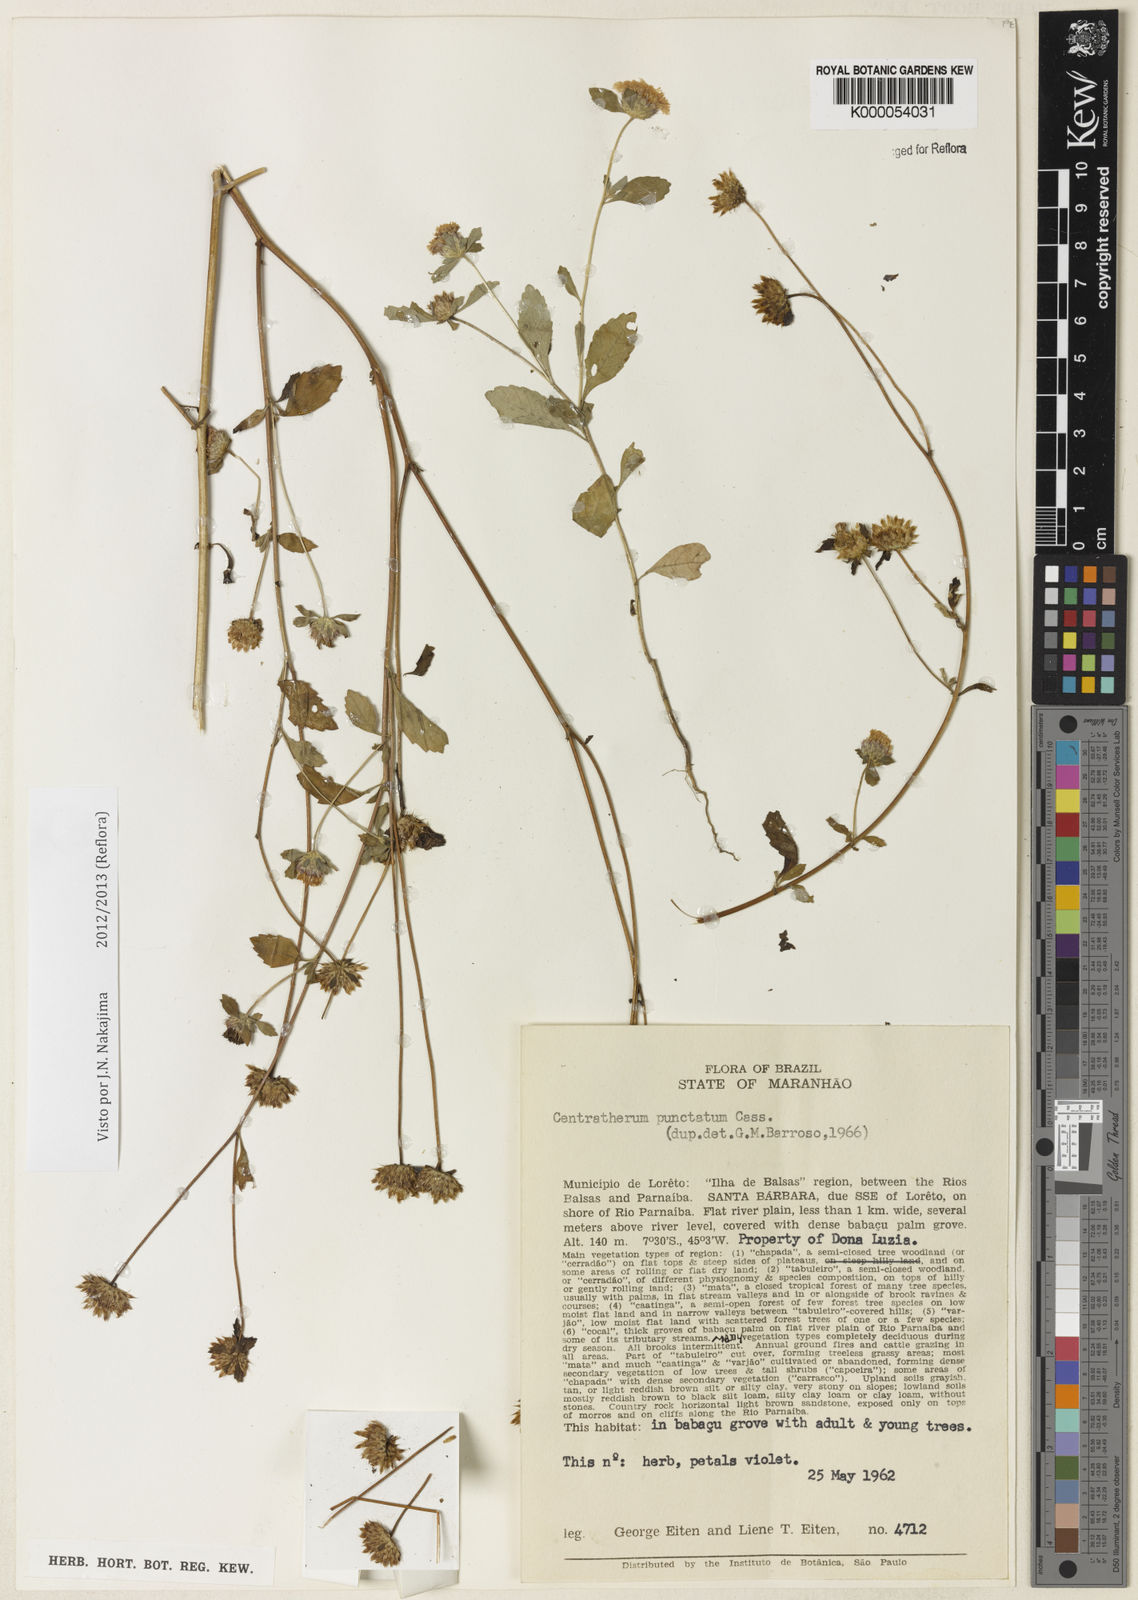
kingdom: Plantae
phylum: Tracheophyta
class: Magnoliopsida
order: Asterales
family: Asteraceae
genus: Centratherum
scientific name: Centratherum punctatum
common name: Larkdaisy
